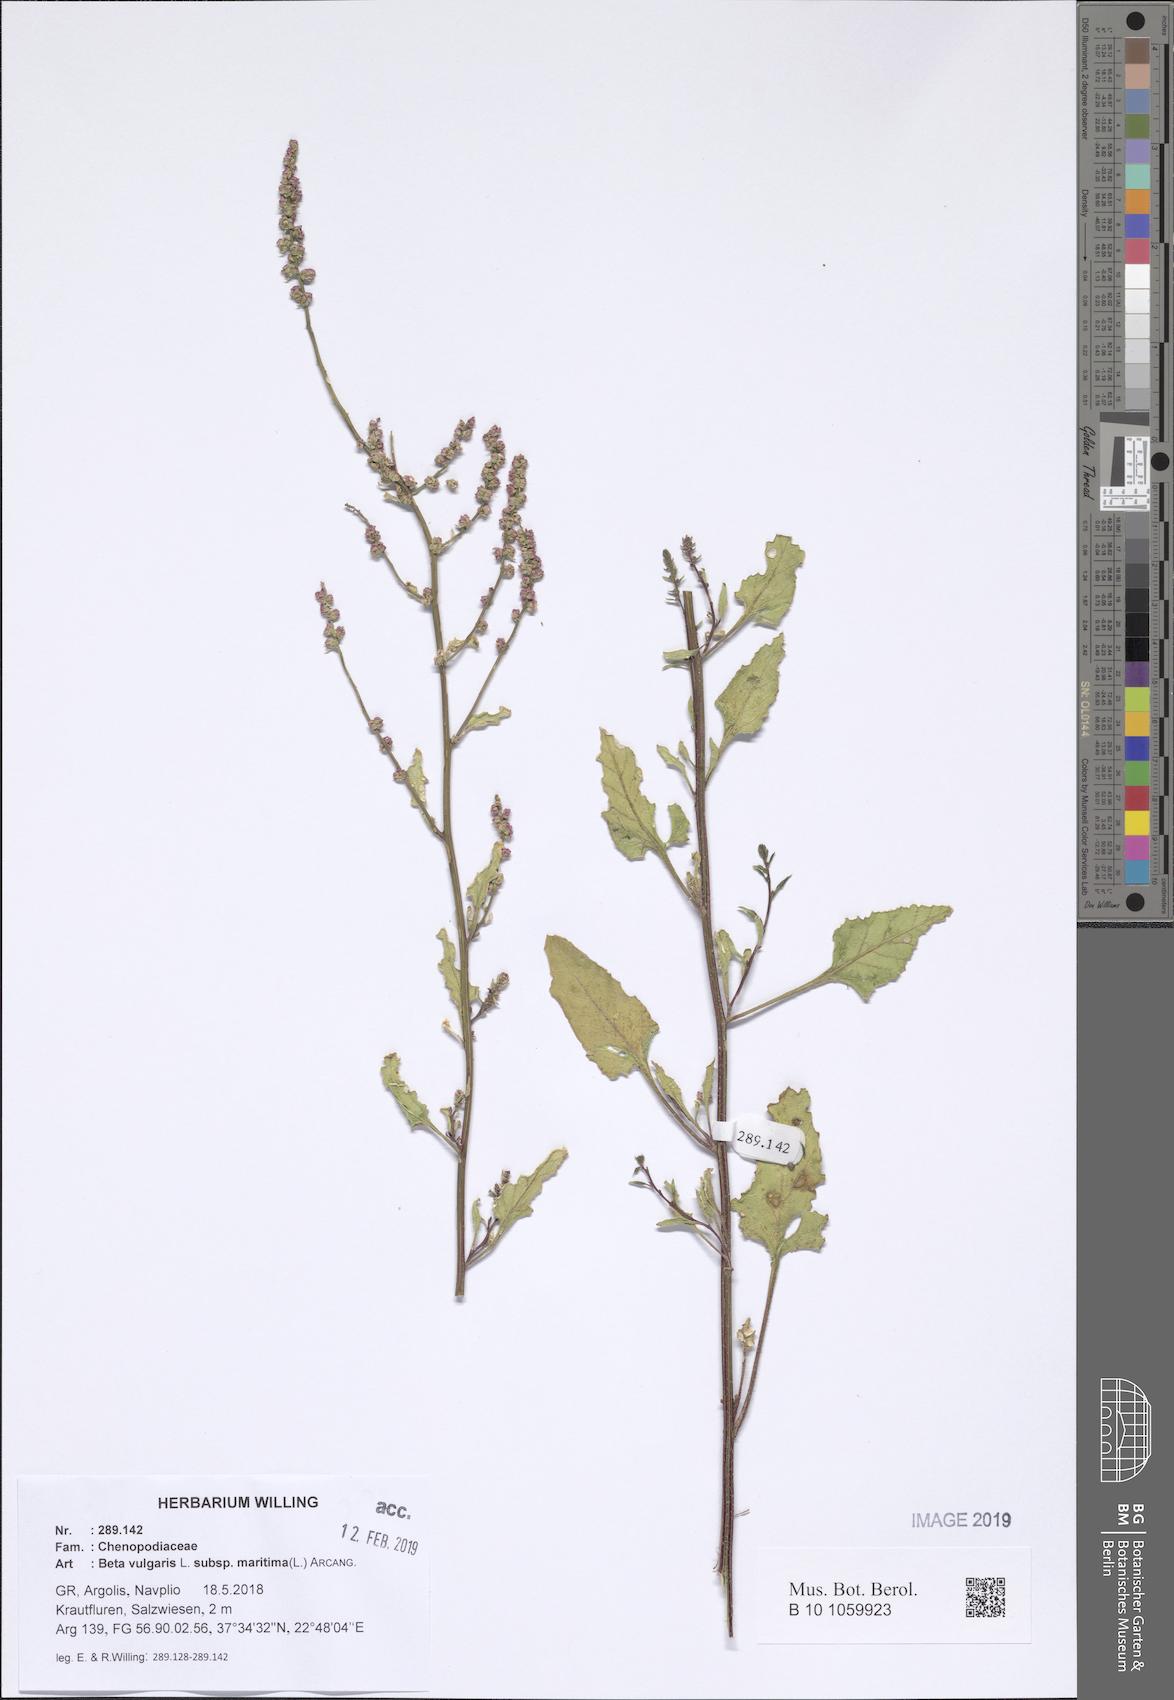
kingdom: Plantae
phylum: Tracheophyta
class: Magnoliopsida
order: Caryophyllales
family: Amaranthaceae
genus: Beta
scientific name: Beta maritima
